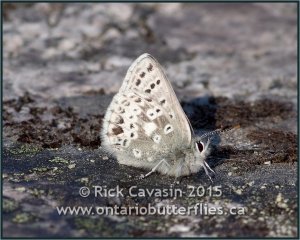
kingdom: Animalia
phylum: Arthropoda
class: Insecta
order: Lepidoptera
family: Lycaenidae
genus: Agriades
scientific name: Agriades glandon
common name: Arctic Blue
